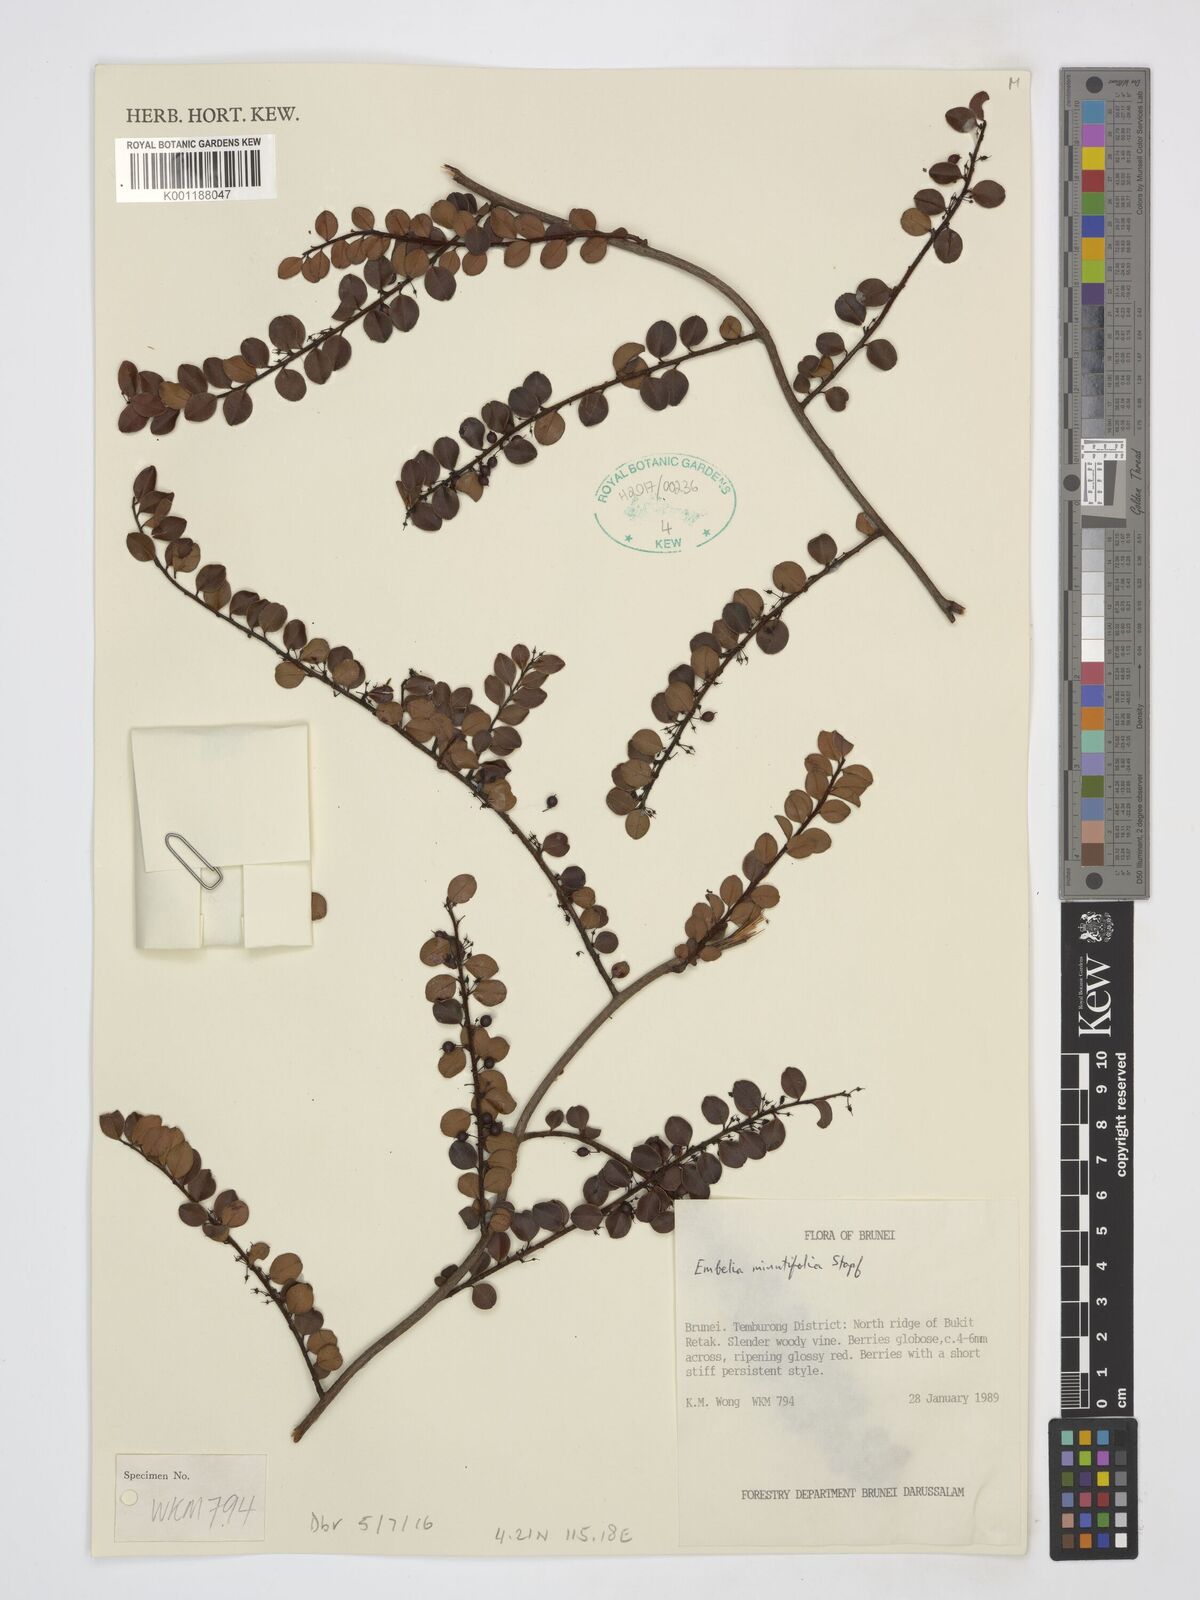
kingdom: Plantae
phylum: Tracheophyta
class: Magnoliopsida
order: Ericales
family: Primulaceae
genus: Embelia
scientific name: Embelia minutifolia
